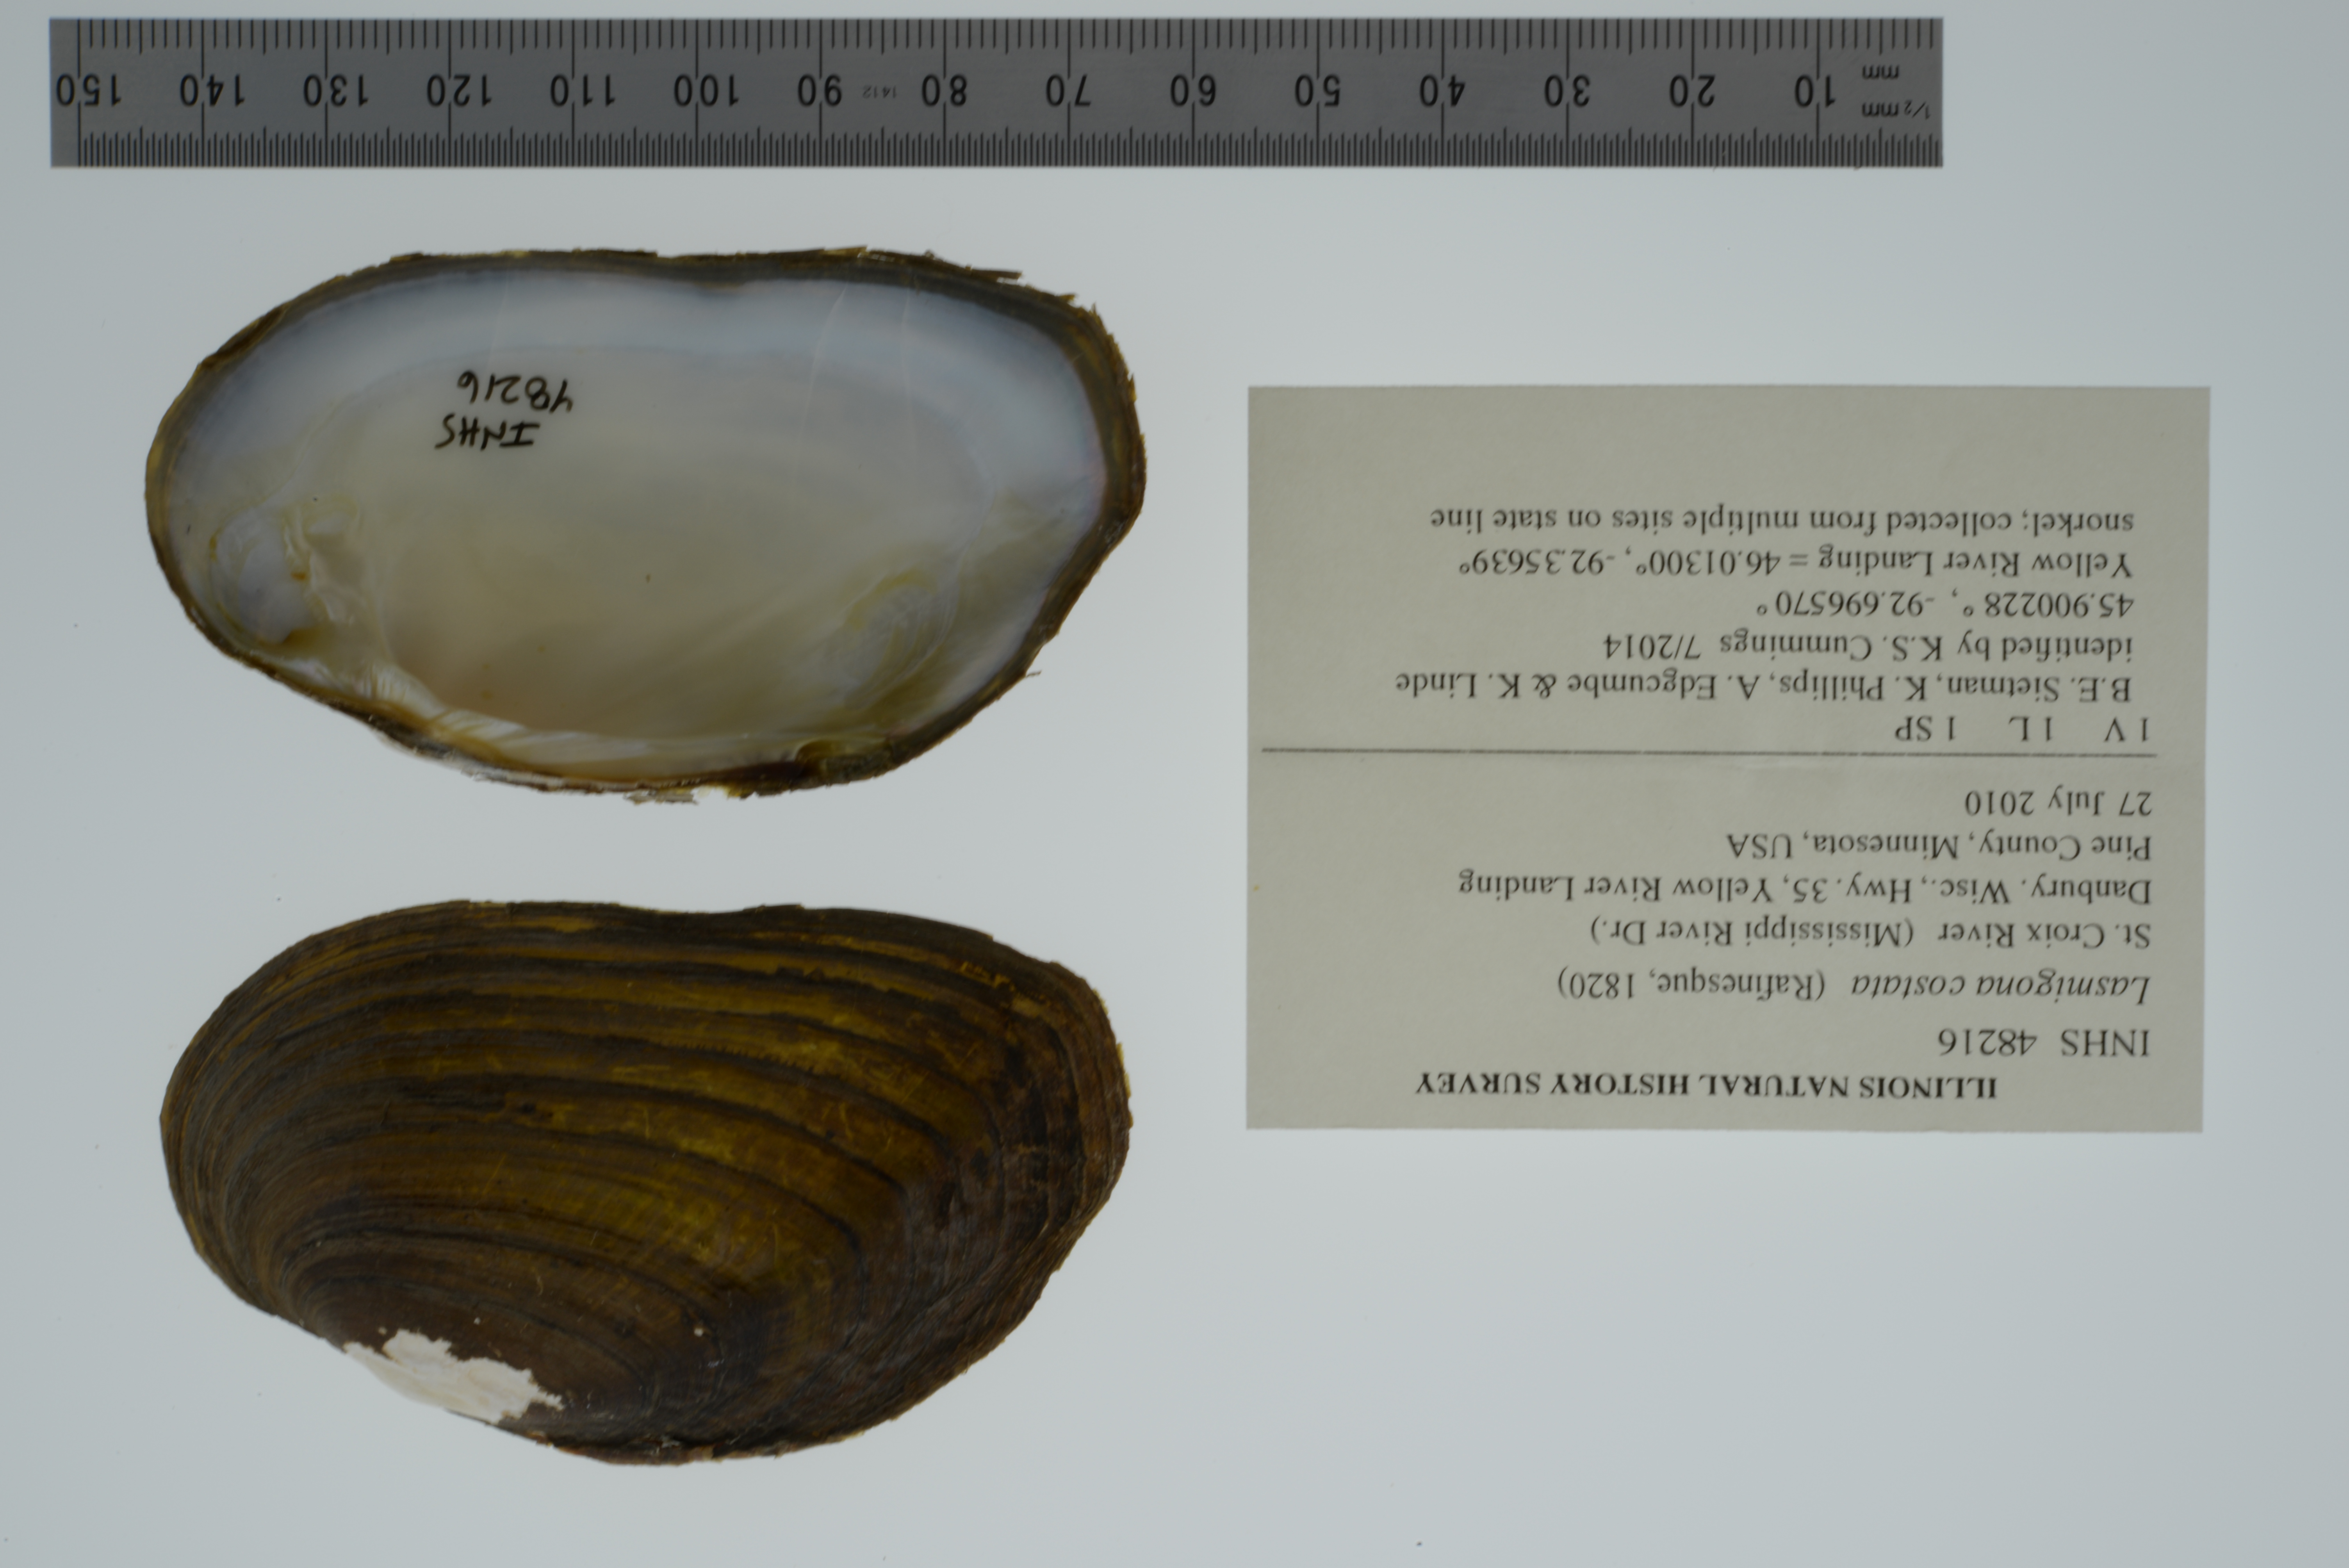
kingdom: Animalia
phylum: Mollusca
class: Bivalvia
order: Unionida
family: Unionidae
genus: Lasmigona
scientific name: Lasmigona costata
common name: Flutedshell
